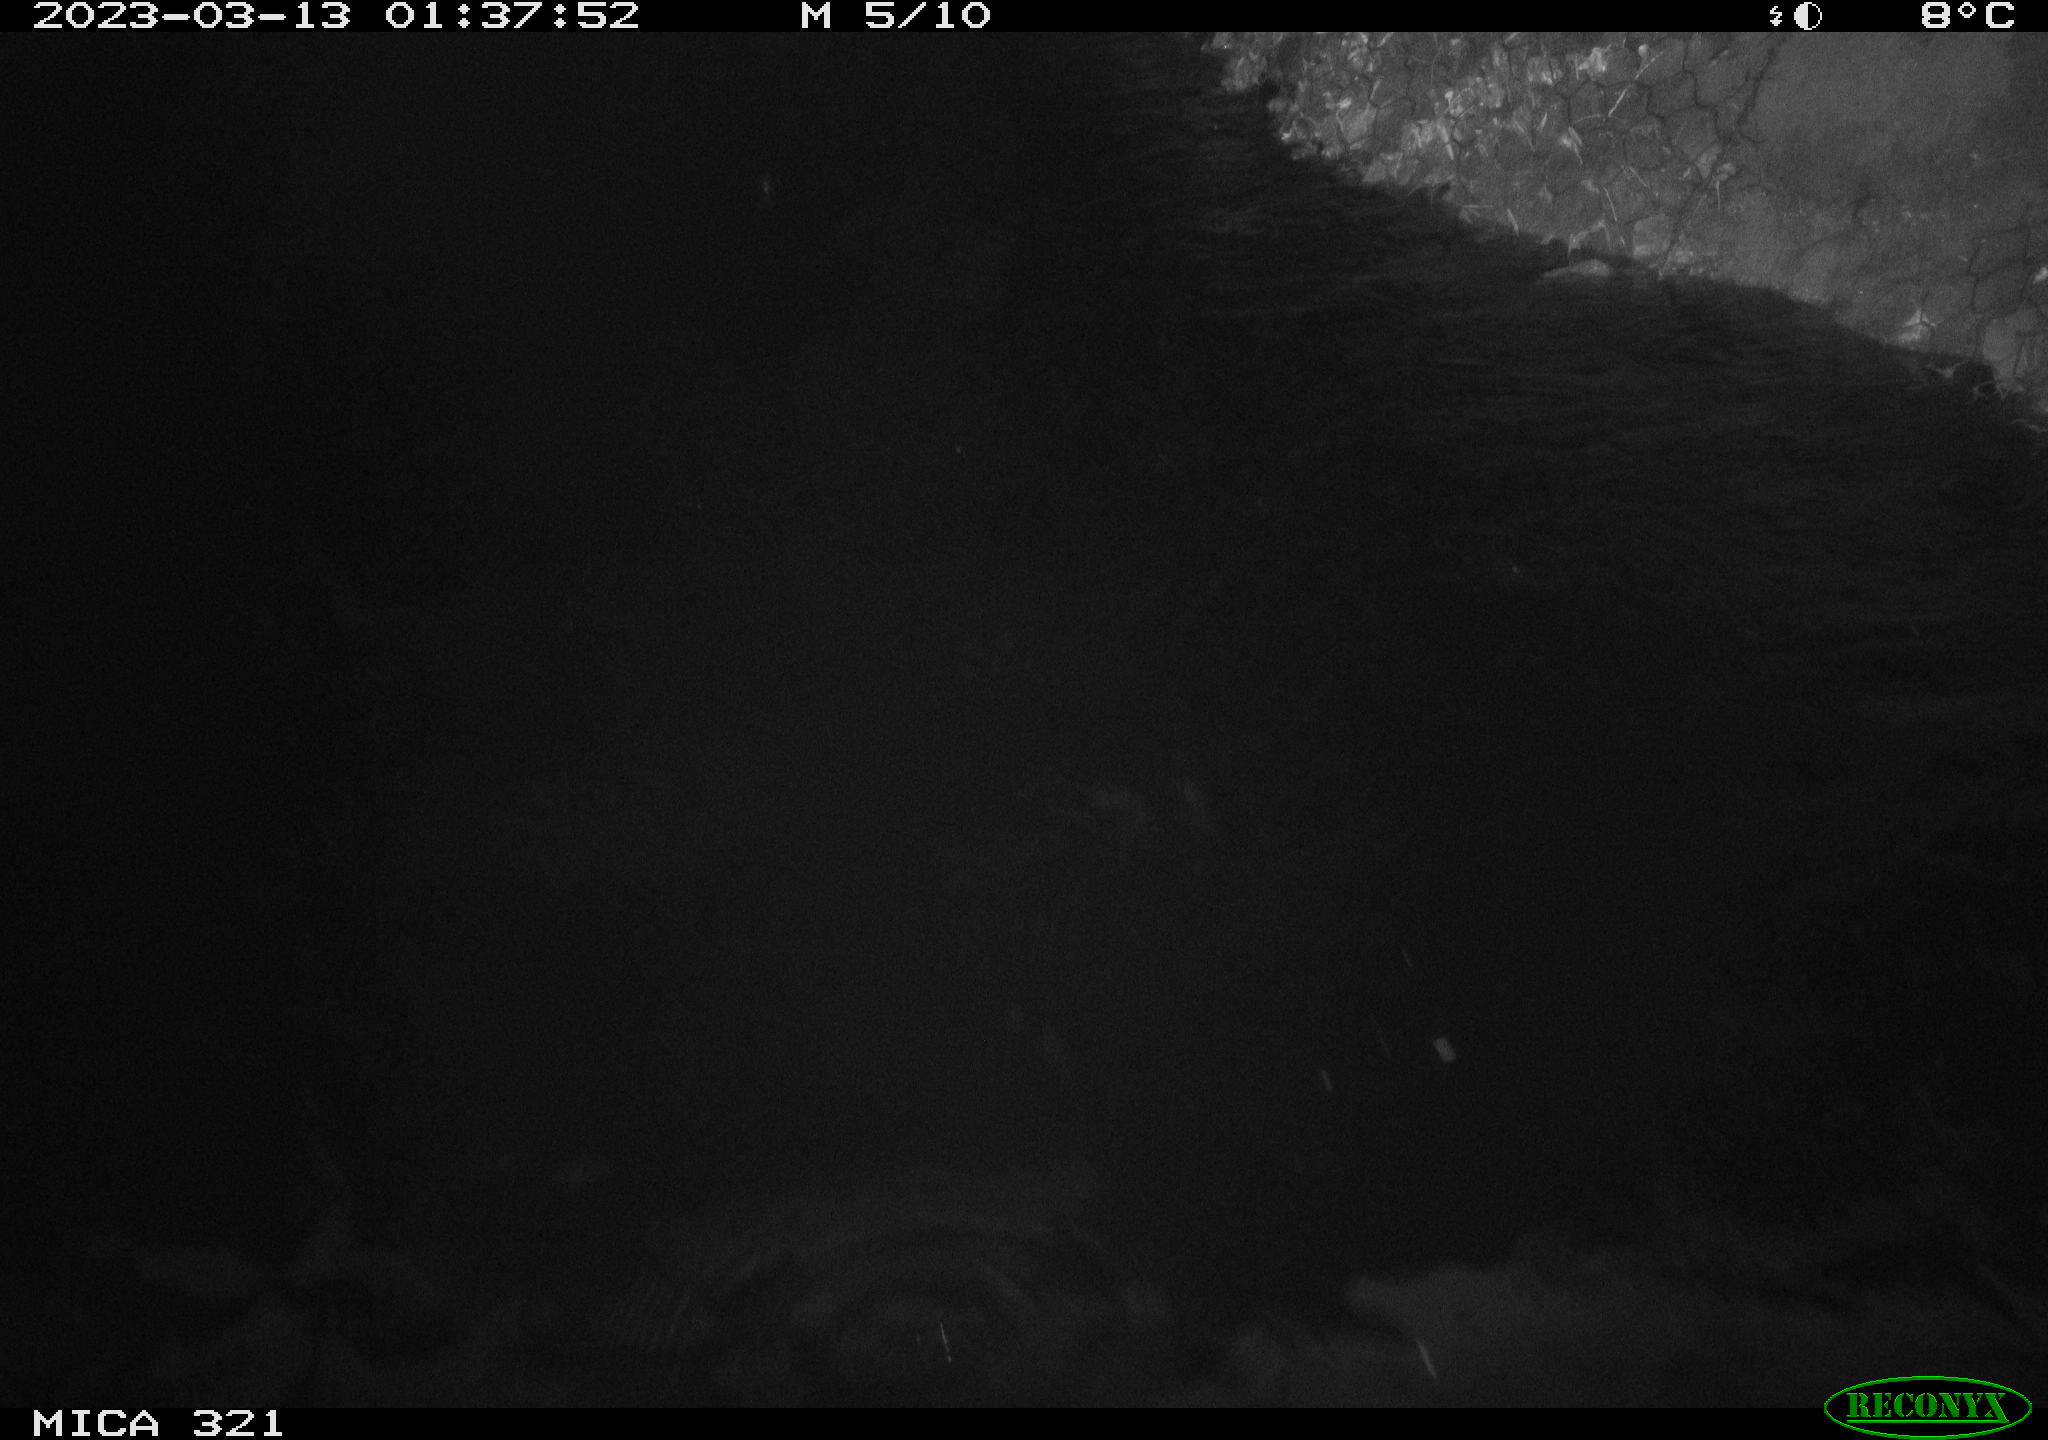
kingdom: Animalia
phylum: Chordata
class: Mammalia
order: Rodentia
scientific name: Rodentia
